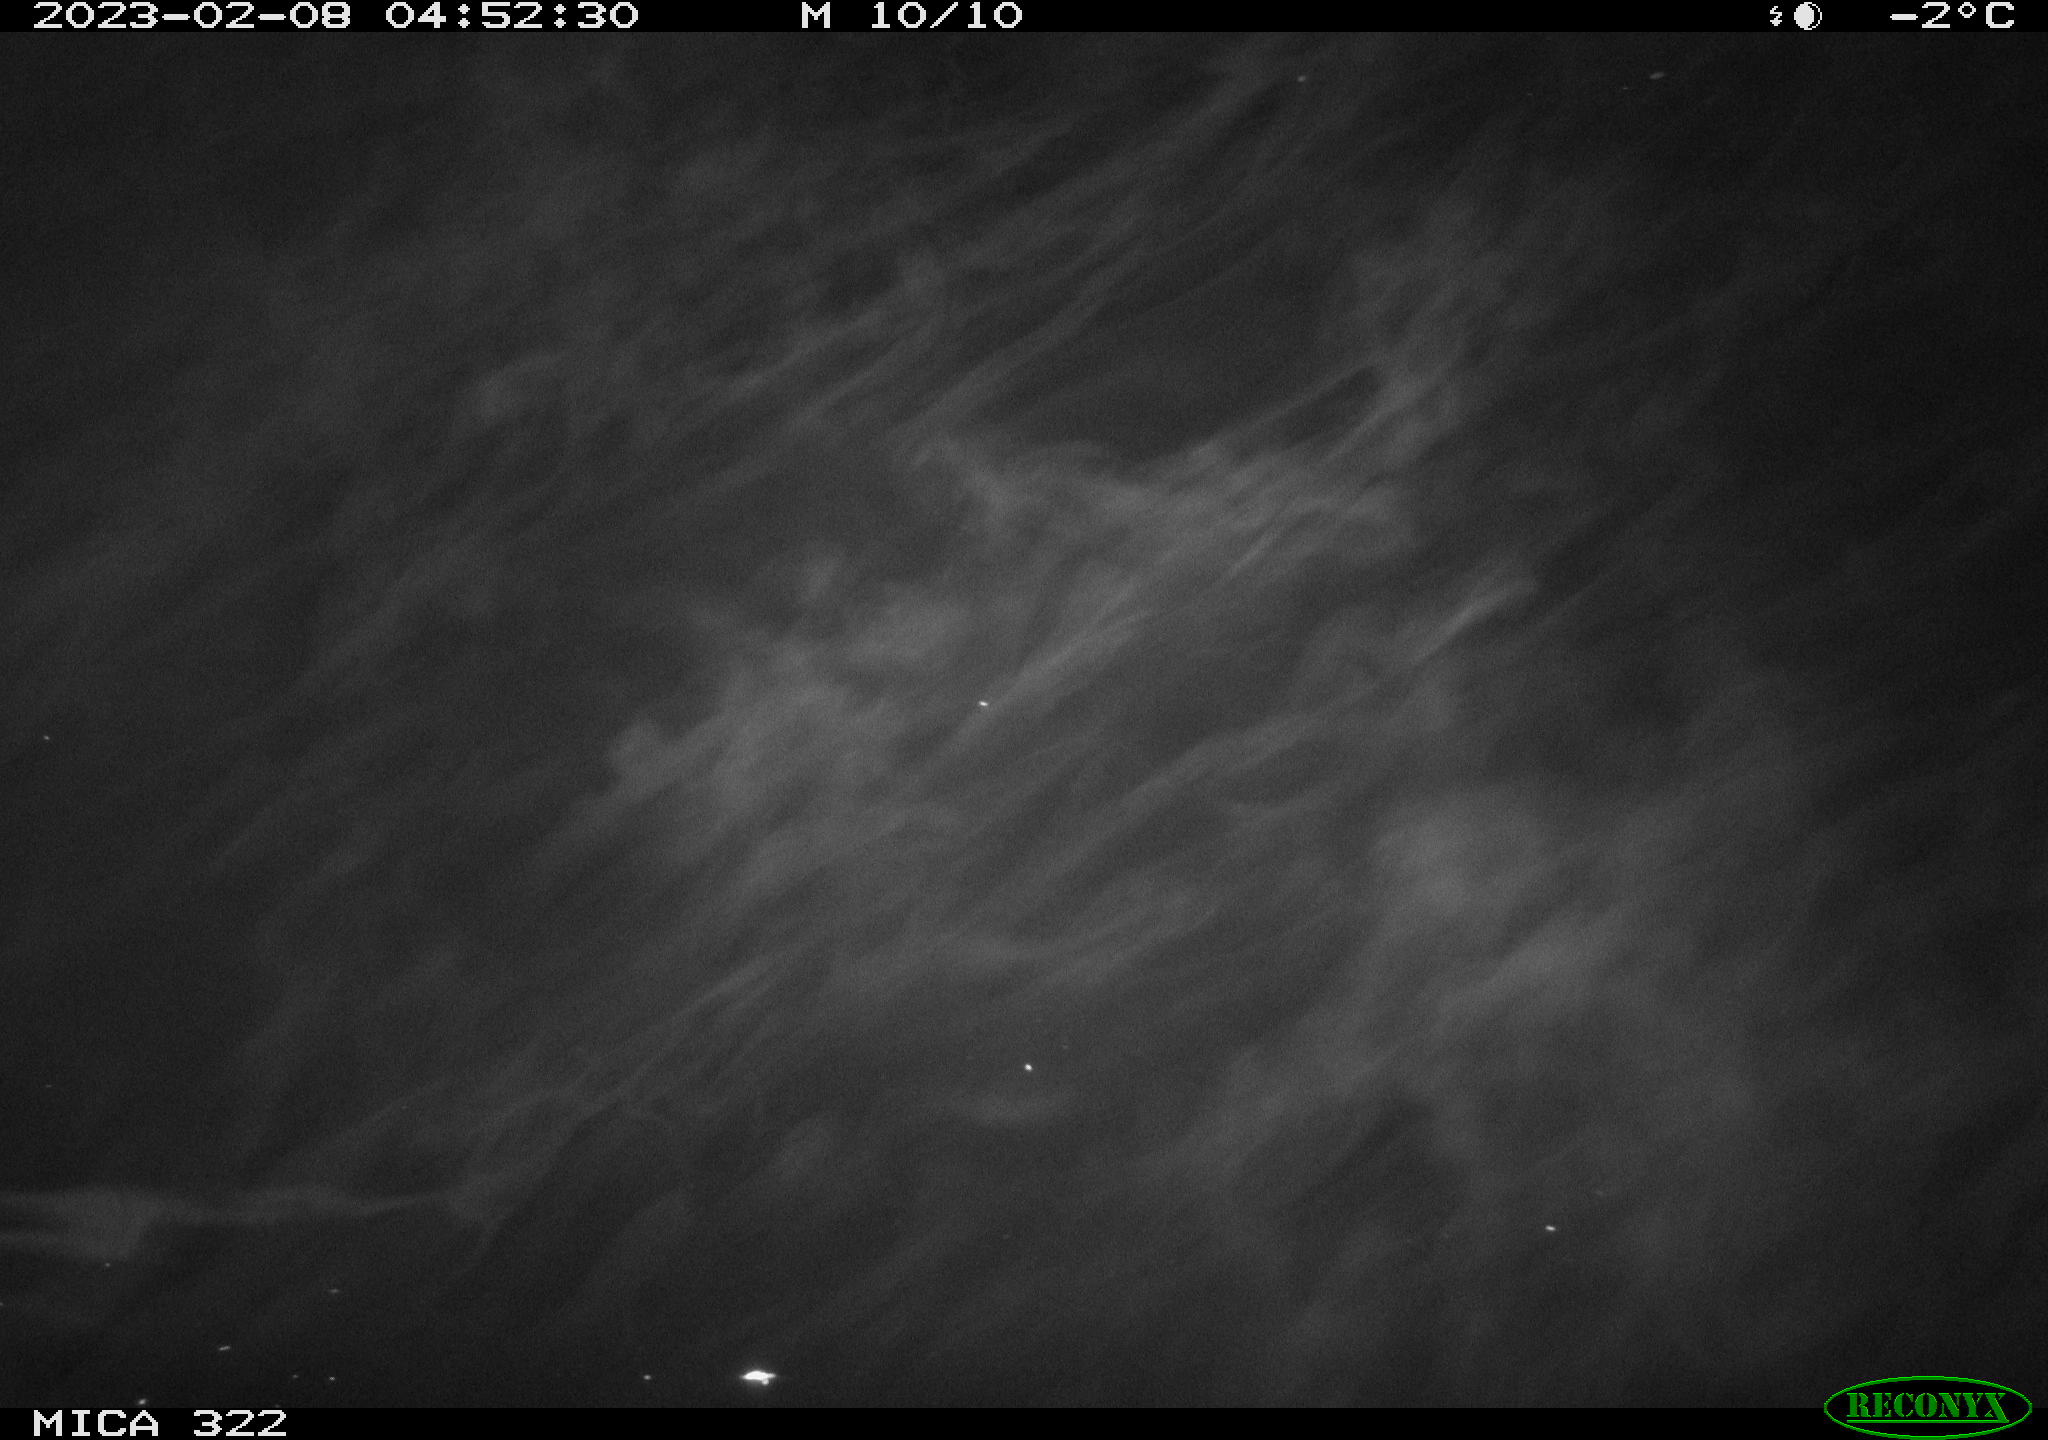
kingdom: Animalia
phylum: Chordata
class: Aves
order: Anseriformes
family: Anatidae
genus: Anas
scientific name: Anas
